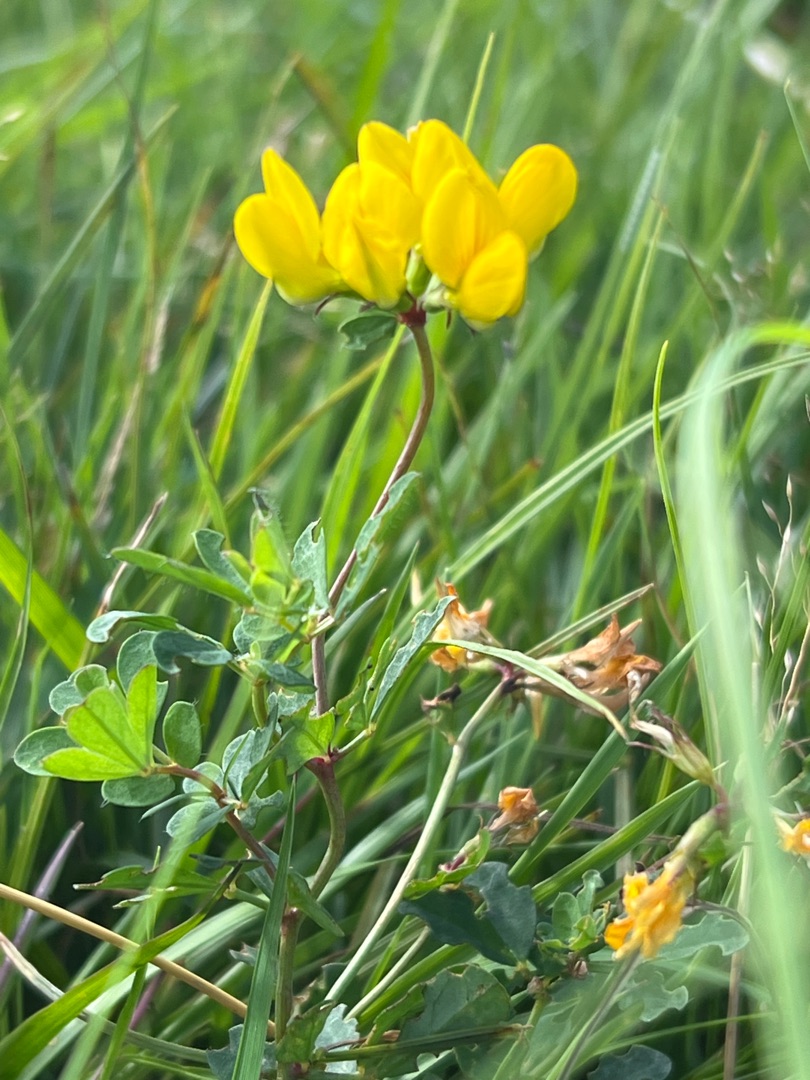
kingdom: Plantae
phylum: Tracheophyta
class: Magnoliopsida
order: Fabales
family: Fabaceae
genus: Lotus
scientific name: Lotus pedunculatus
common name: Sump-kællingetand
